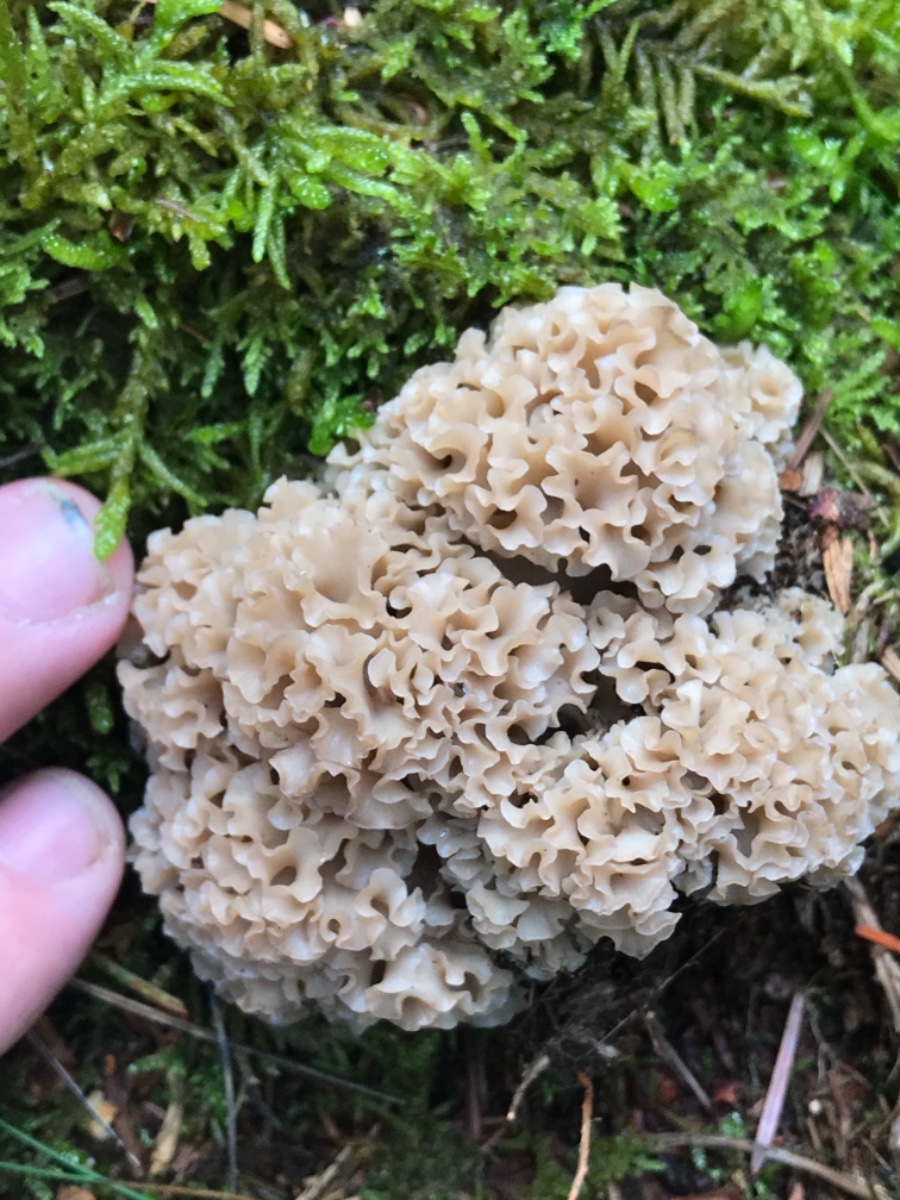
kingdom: Fungi
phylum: Basidiomycota
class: Agaricomycetes
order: Polyporales
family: Sparassidaceae
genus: Sparassis
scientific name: Sparassis crispa
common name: kruset blomkålssvamp
